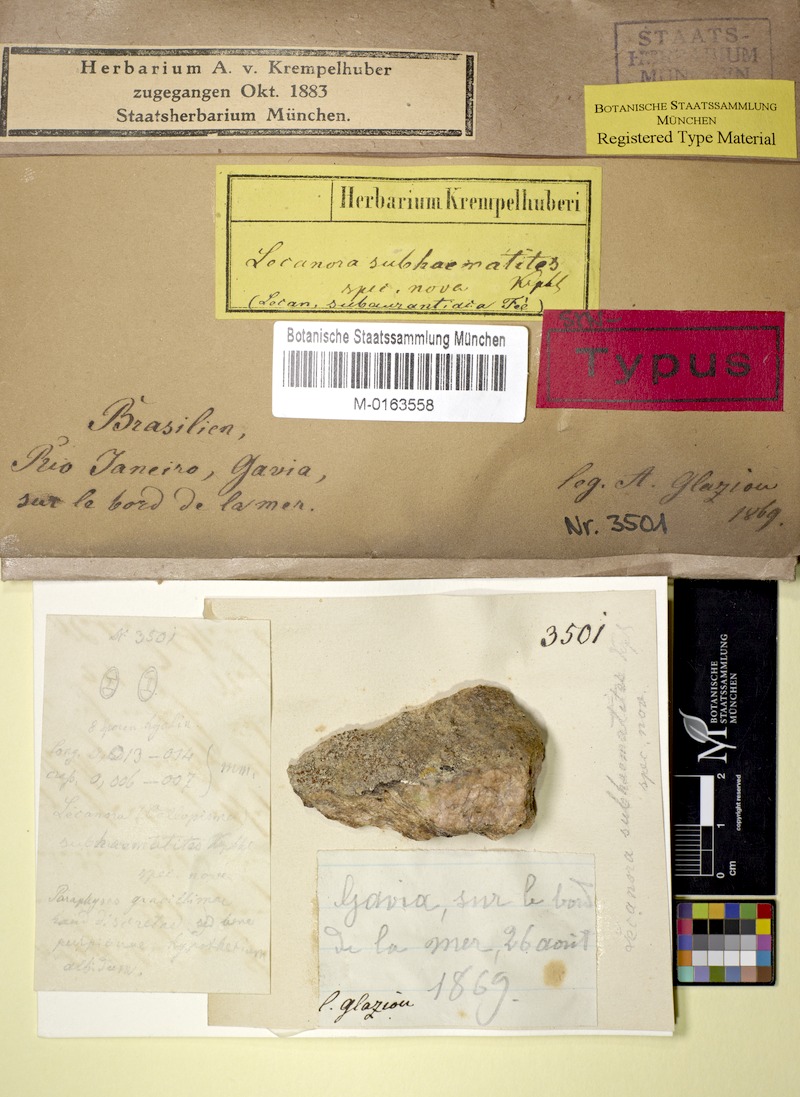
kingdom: Fungi
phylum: Ascomycota
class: Lecanoromycetes
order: Teloschistales
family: Teloschistaceae
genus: Caloplaca
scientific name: Caloplaca subaurantiaca
